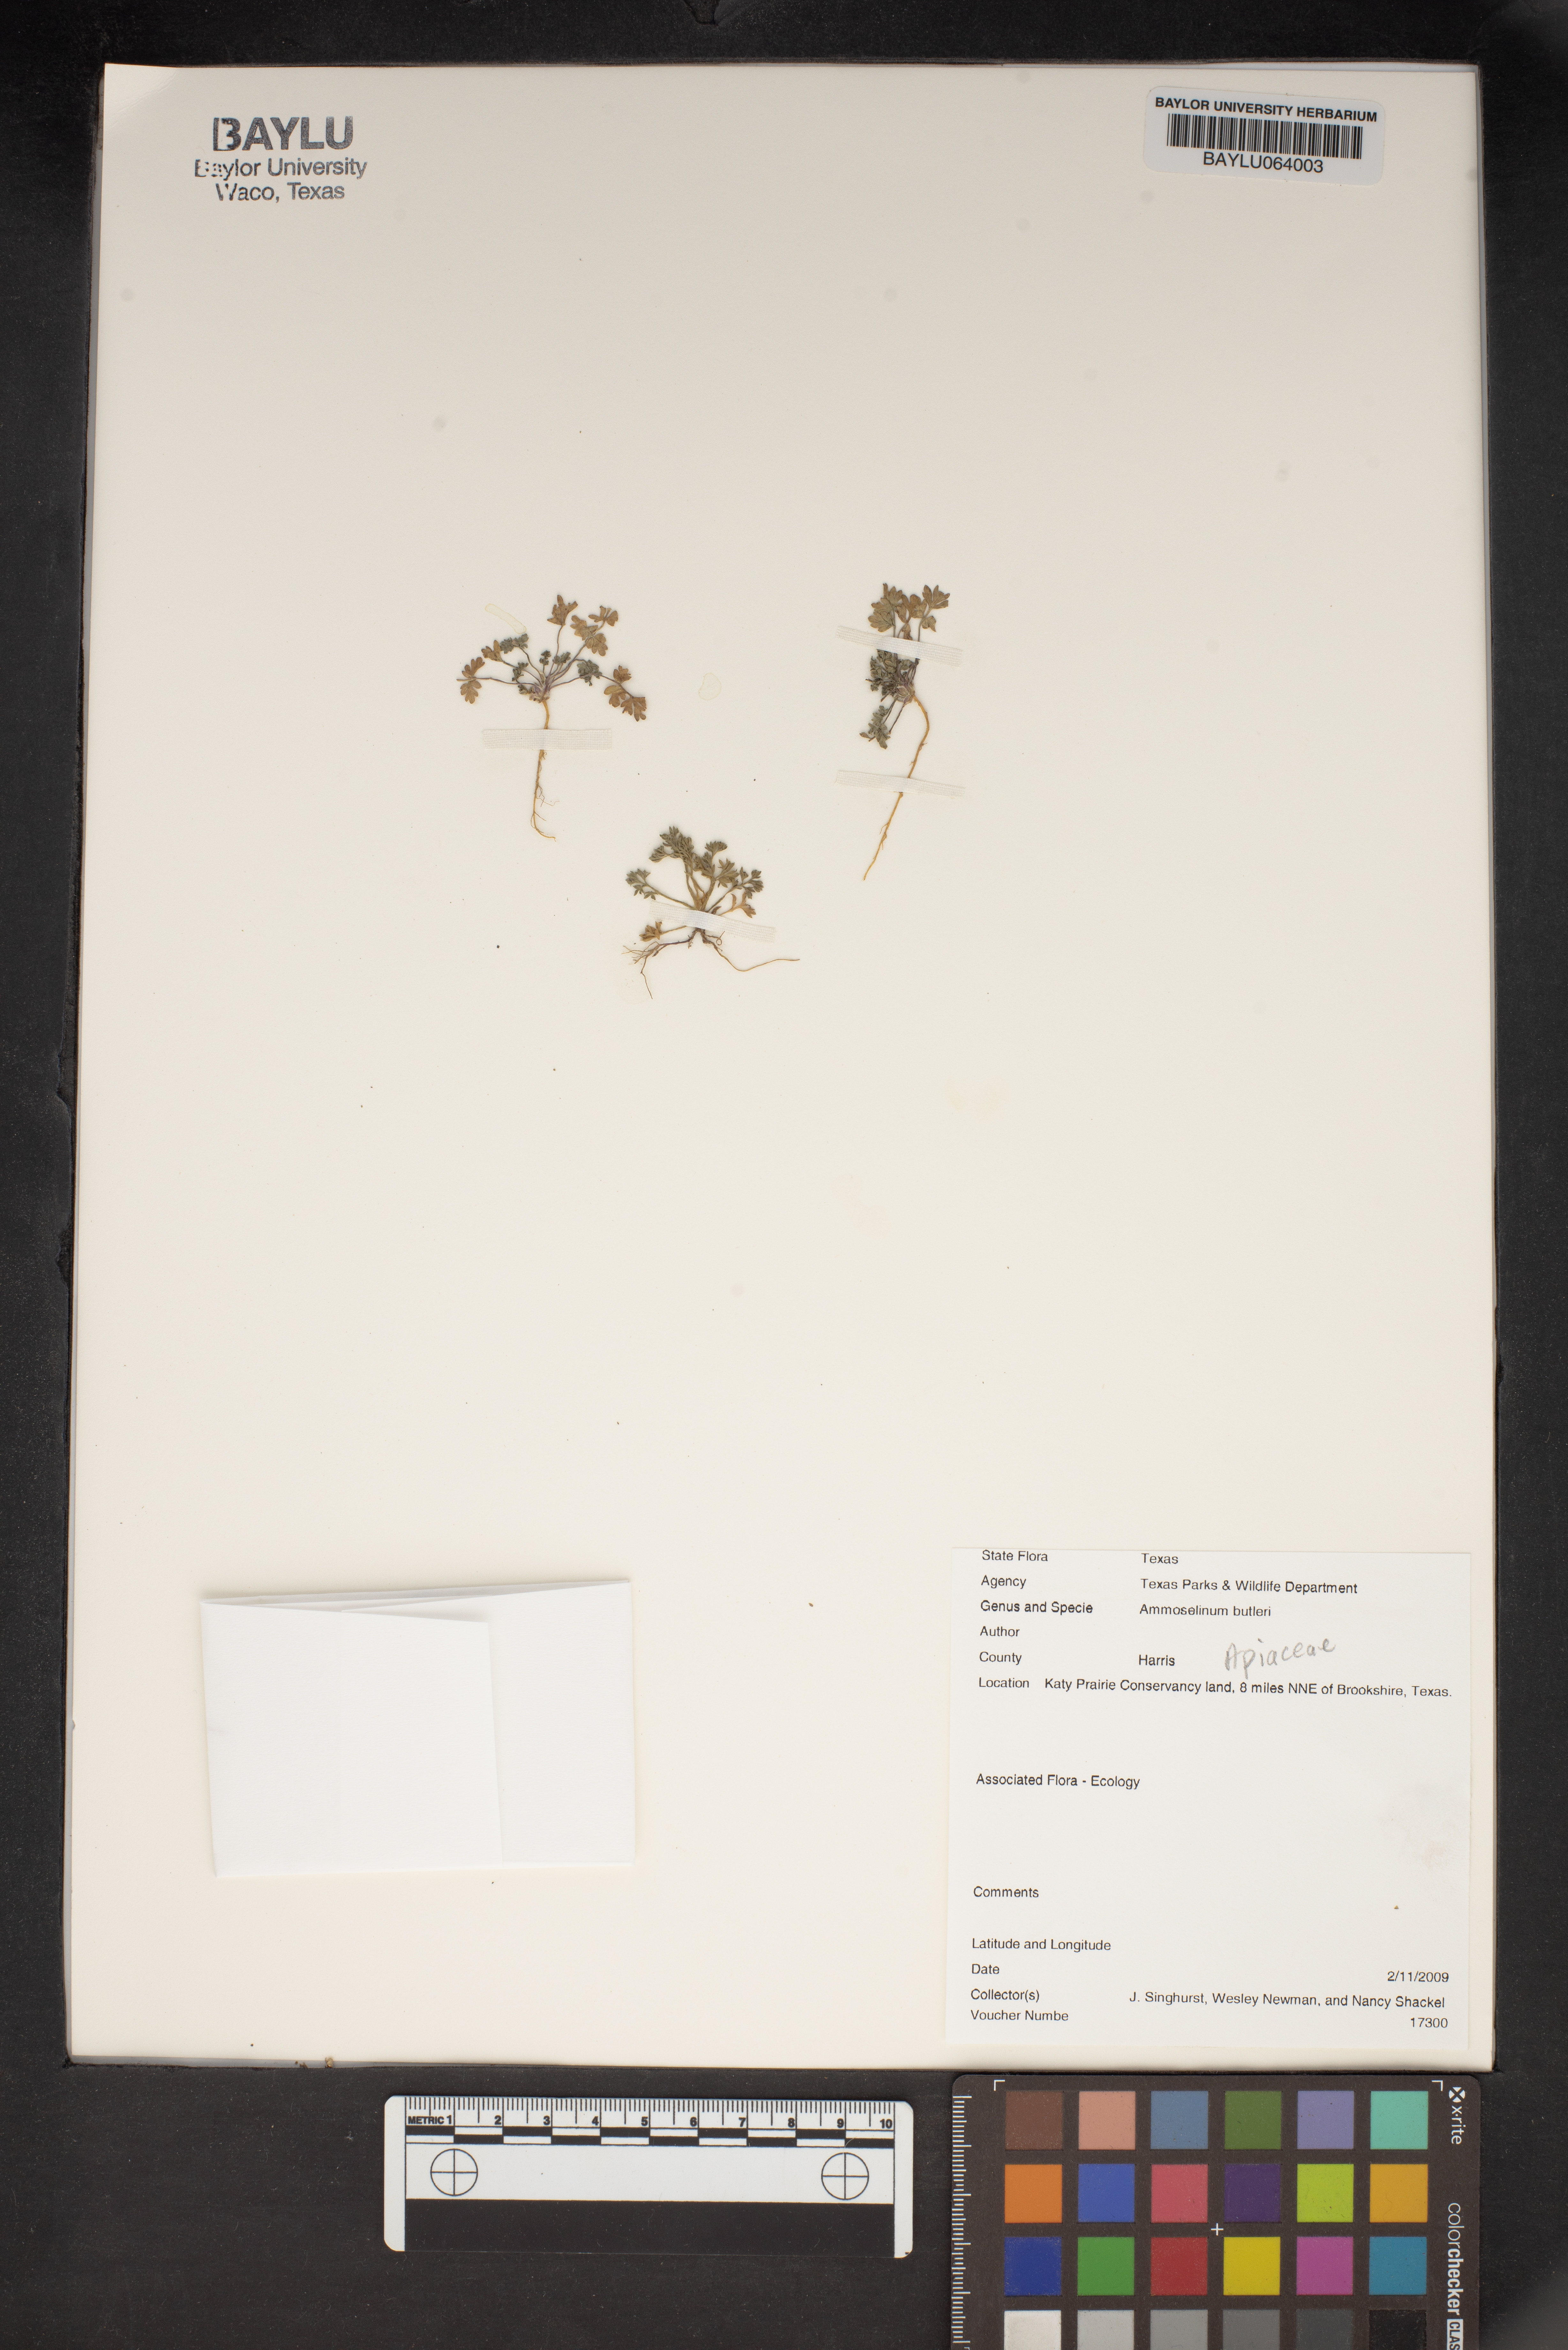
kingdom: Plantae
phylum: Tracheophyta
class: Magnoliopsida
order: Apiales
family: Apiaceae
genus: Ammoselinum
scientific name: Ammoselinum butleri
